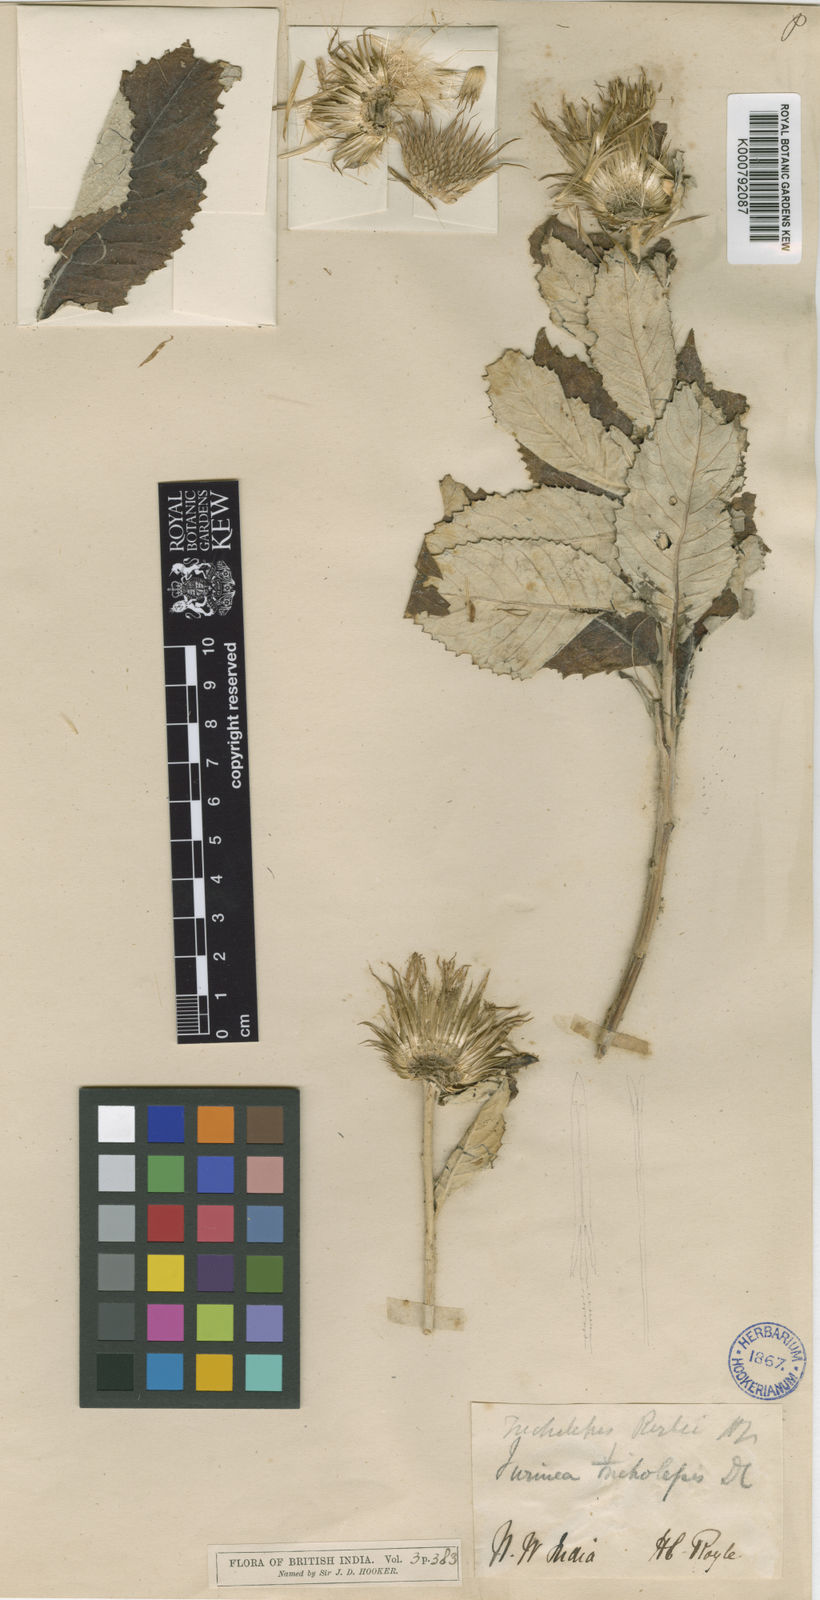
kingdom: Plantae
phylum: Tracheophyta
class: Magnoliopsida
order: Asterales
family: Asteraceae
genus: Tricholepis
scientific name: Tricholepis roylei
